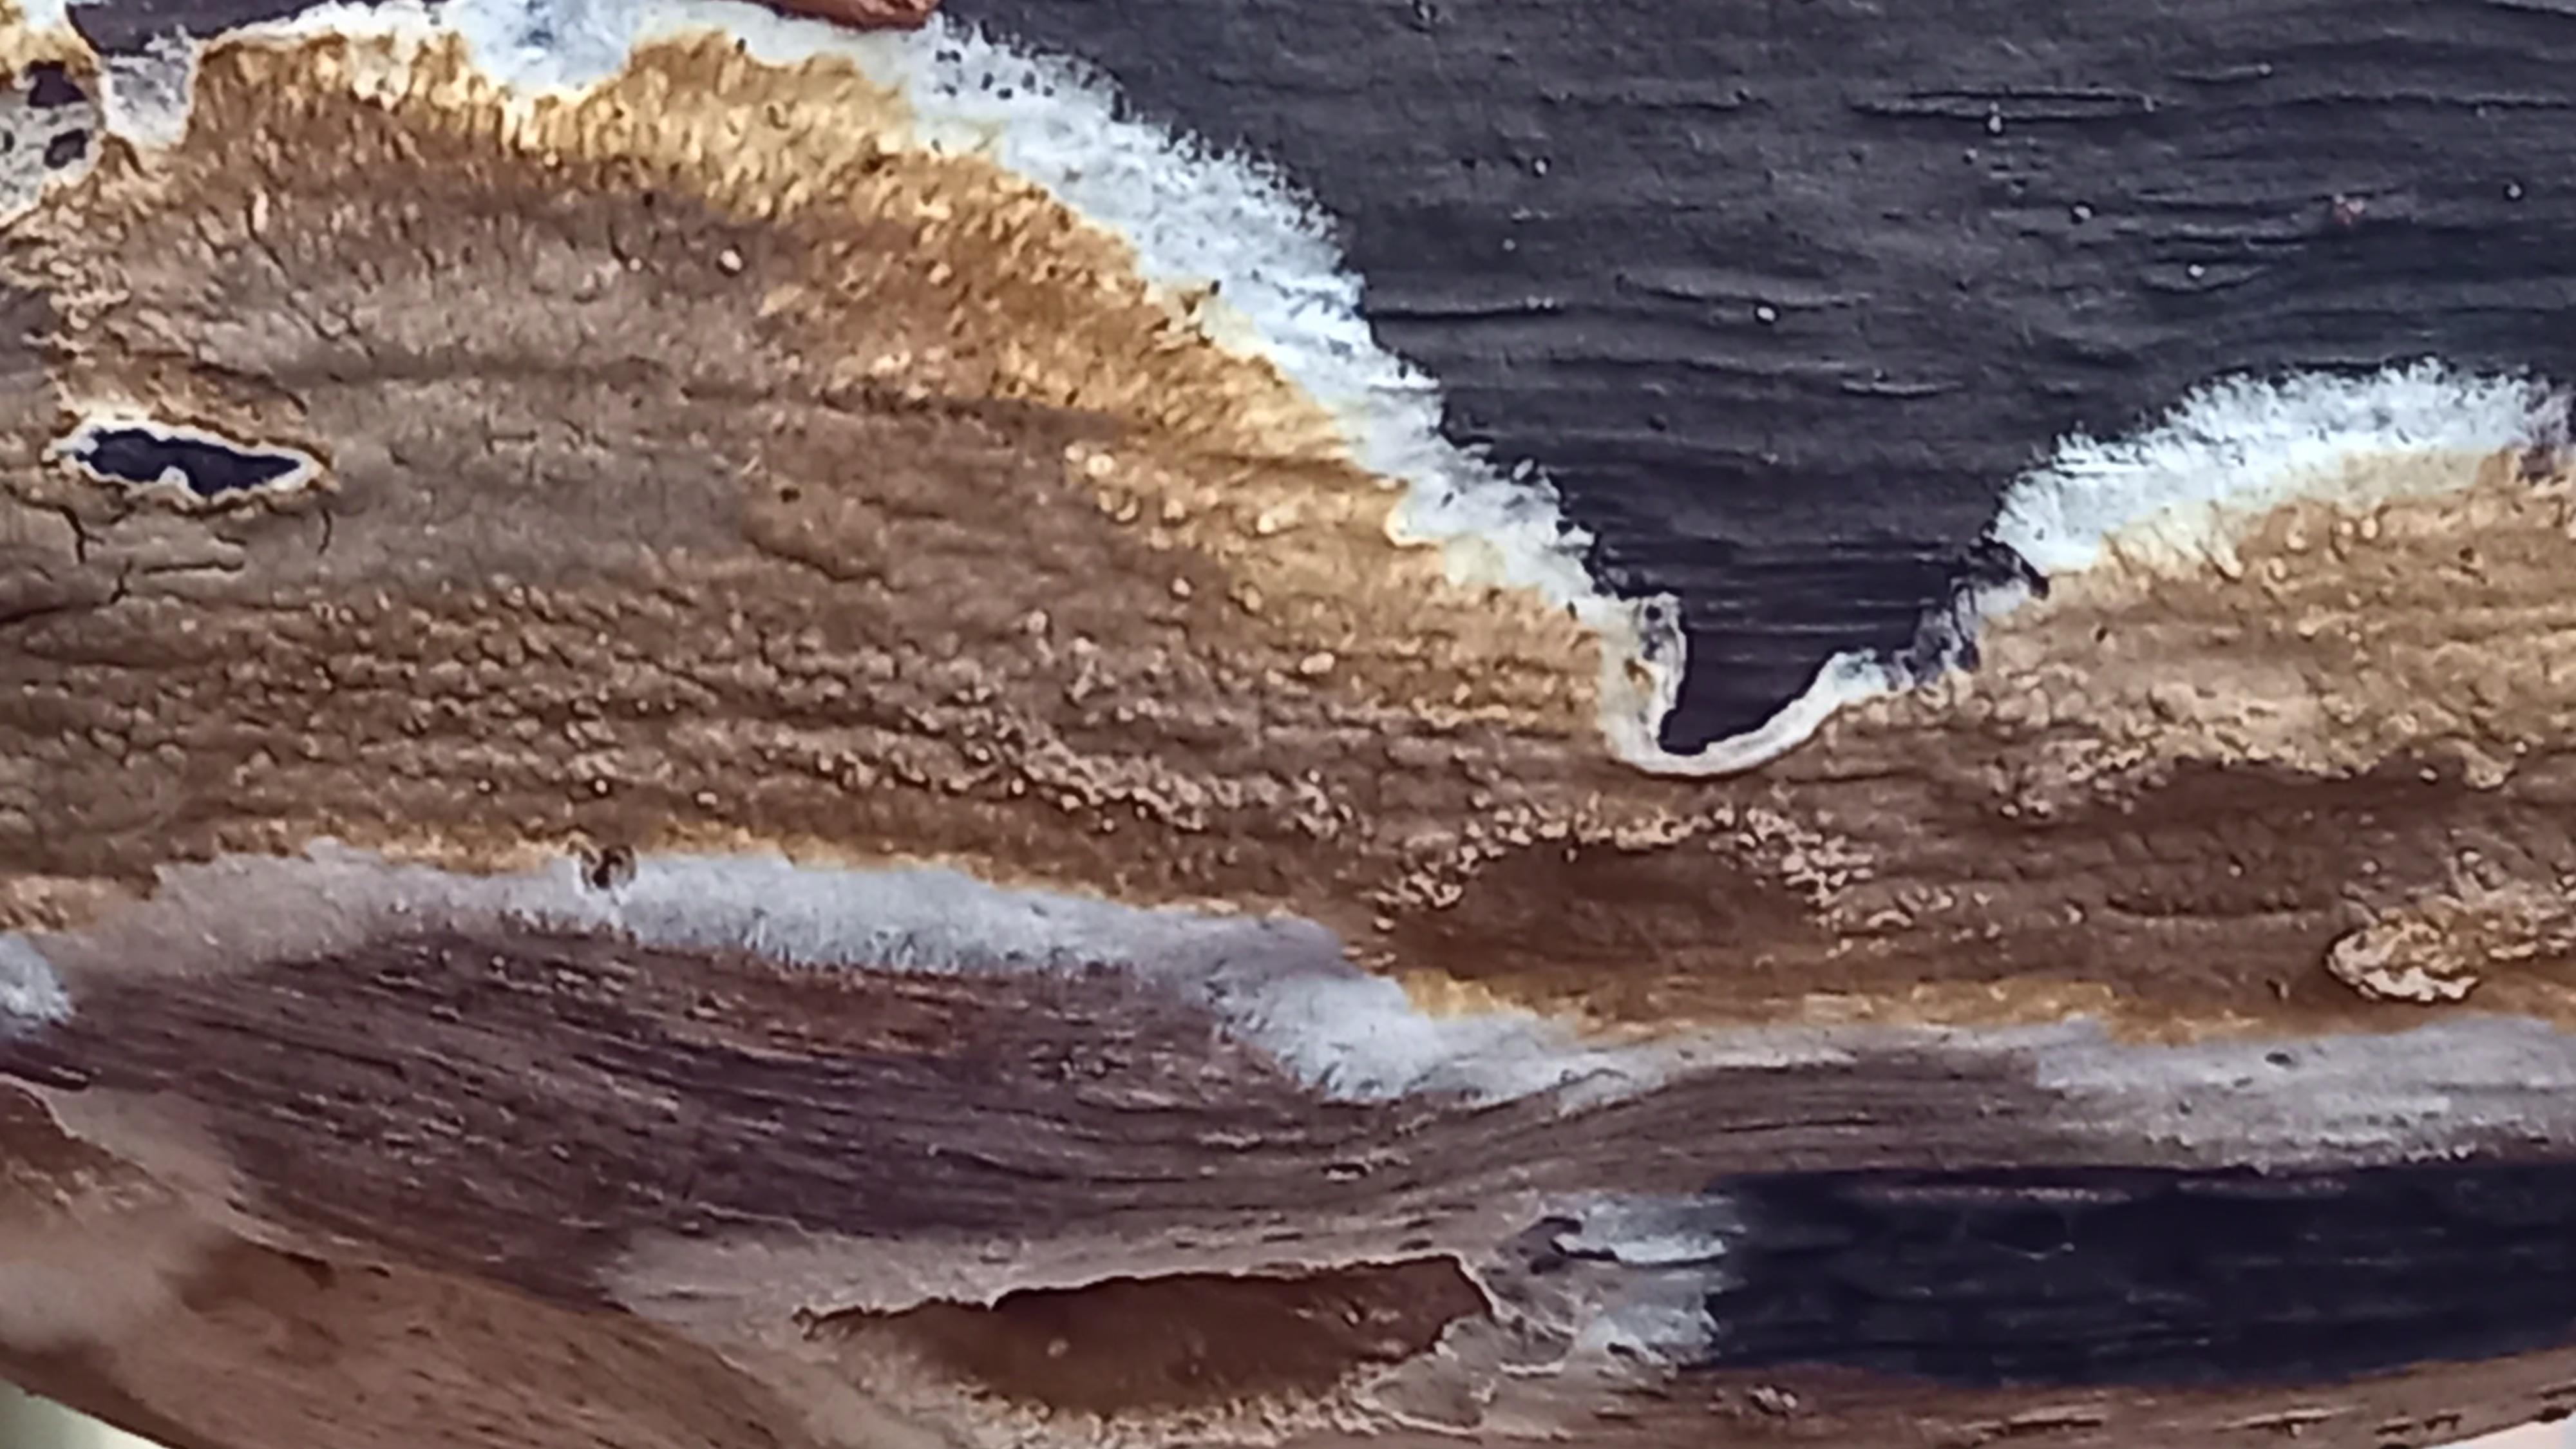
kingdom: Fungi
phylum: Basidiomycota
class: Agaricomycetes
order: Boletales
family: Coniophoraceae
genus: Coniophora
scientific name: Coniophora puteana
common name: gul tømmersvamp
